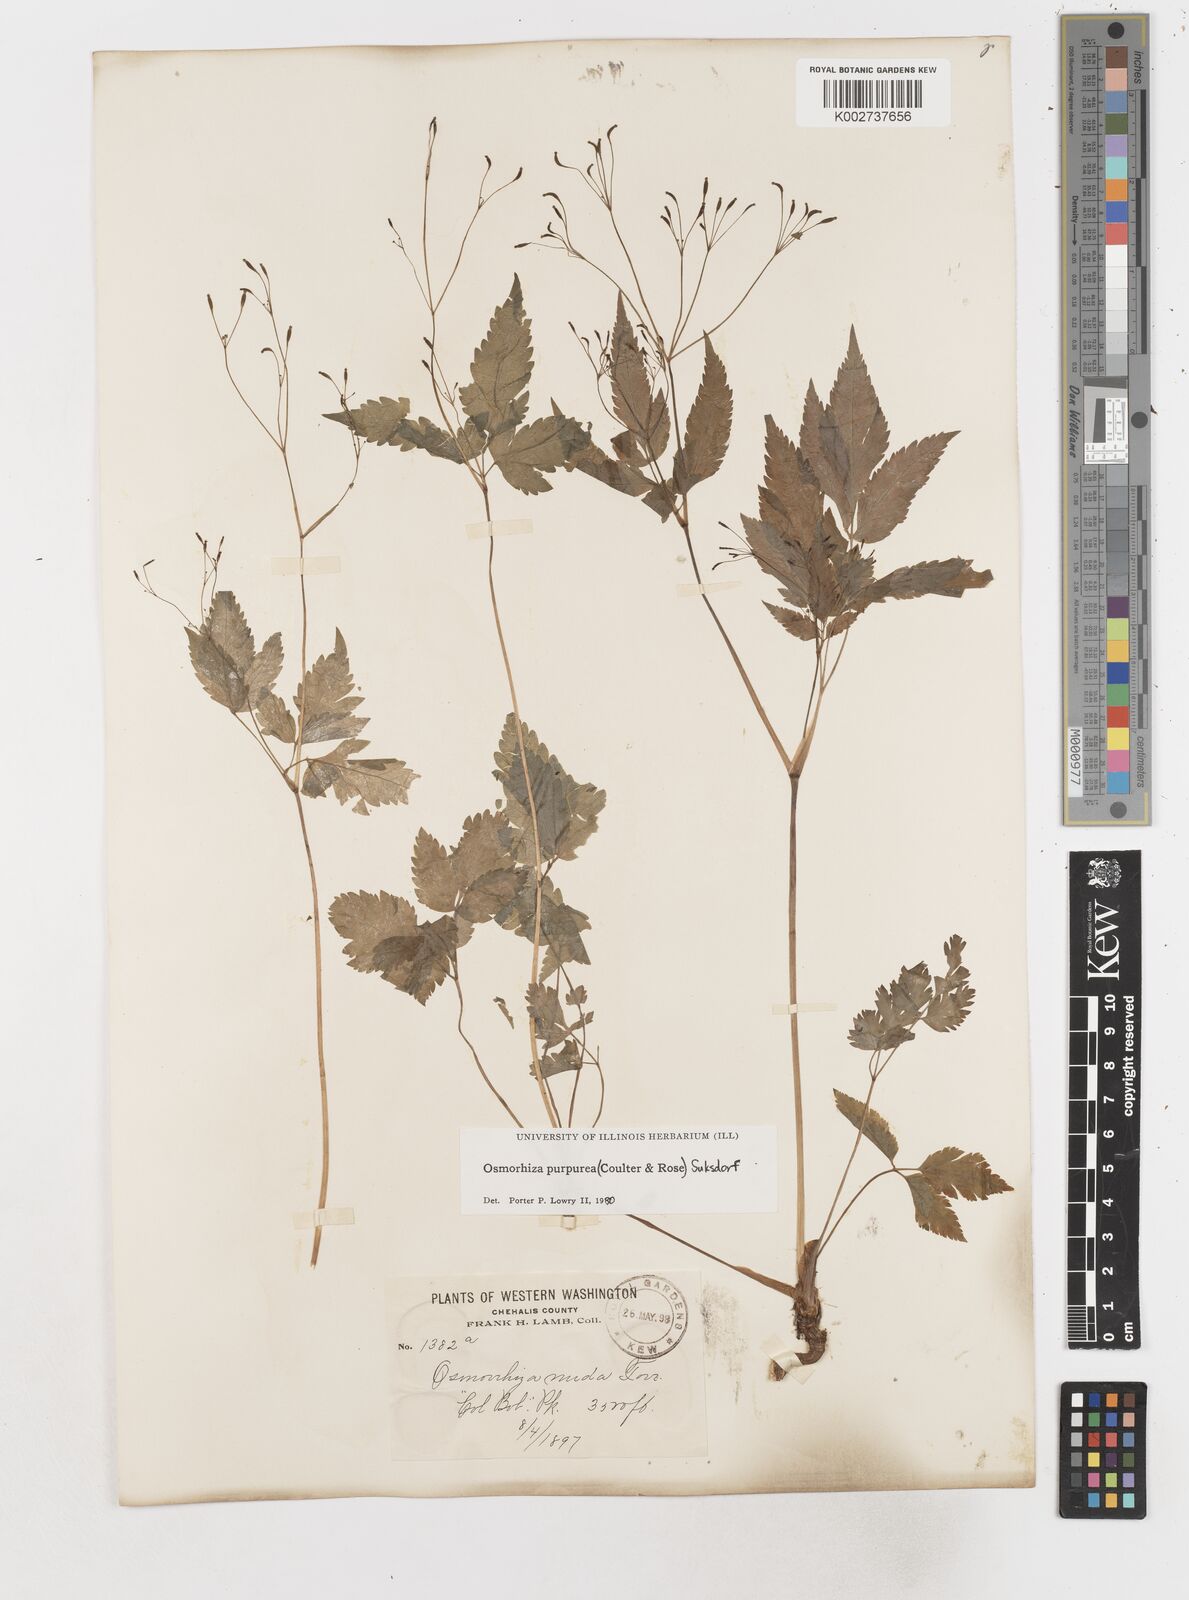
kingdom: Plantae
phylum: Tracheophyta
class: Magnoliopsida
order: Apiales
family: Apiaceae
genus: Osmorhiza
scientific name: Osmorhiza purpurea
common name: Purple sweet cicely
